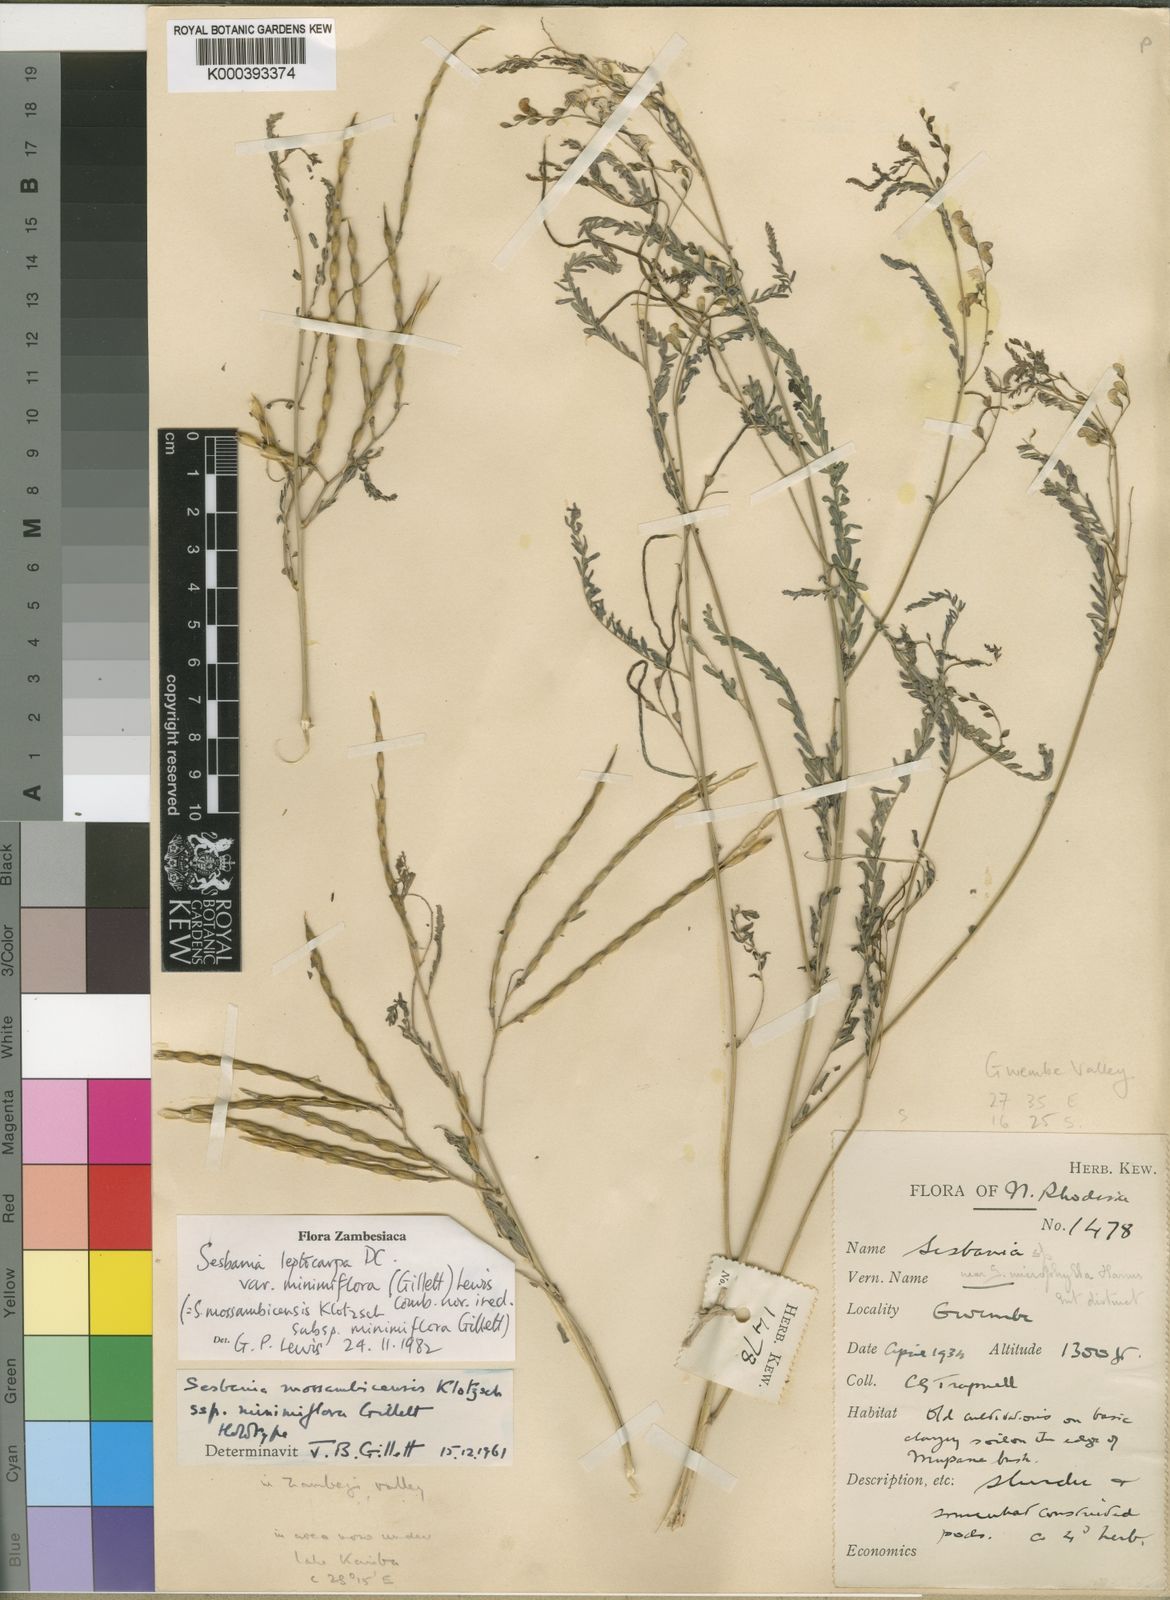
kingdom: Plantae
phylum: Tracheophyta
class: Magnoliopsida
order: Fabales
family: Fabaceae
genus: Sesbania
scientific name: Sesbania leptocarpa
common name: Riverhemp
